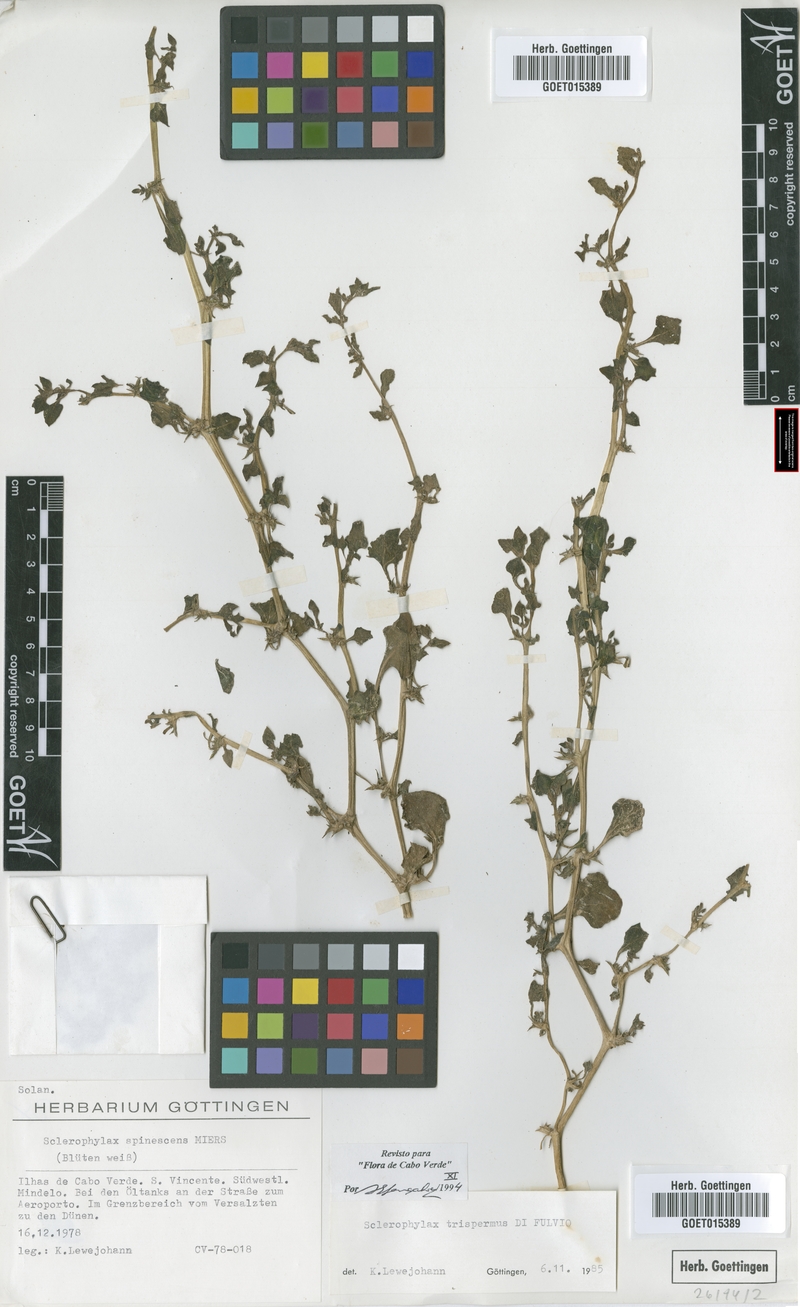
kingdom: Plantae
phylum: Tracheophyta
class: Magnoliopsida
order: Solanales
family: Solanaceae
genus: Sclerophylax
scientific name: Sclerophylax trispermus
